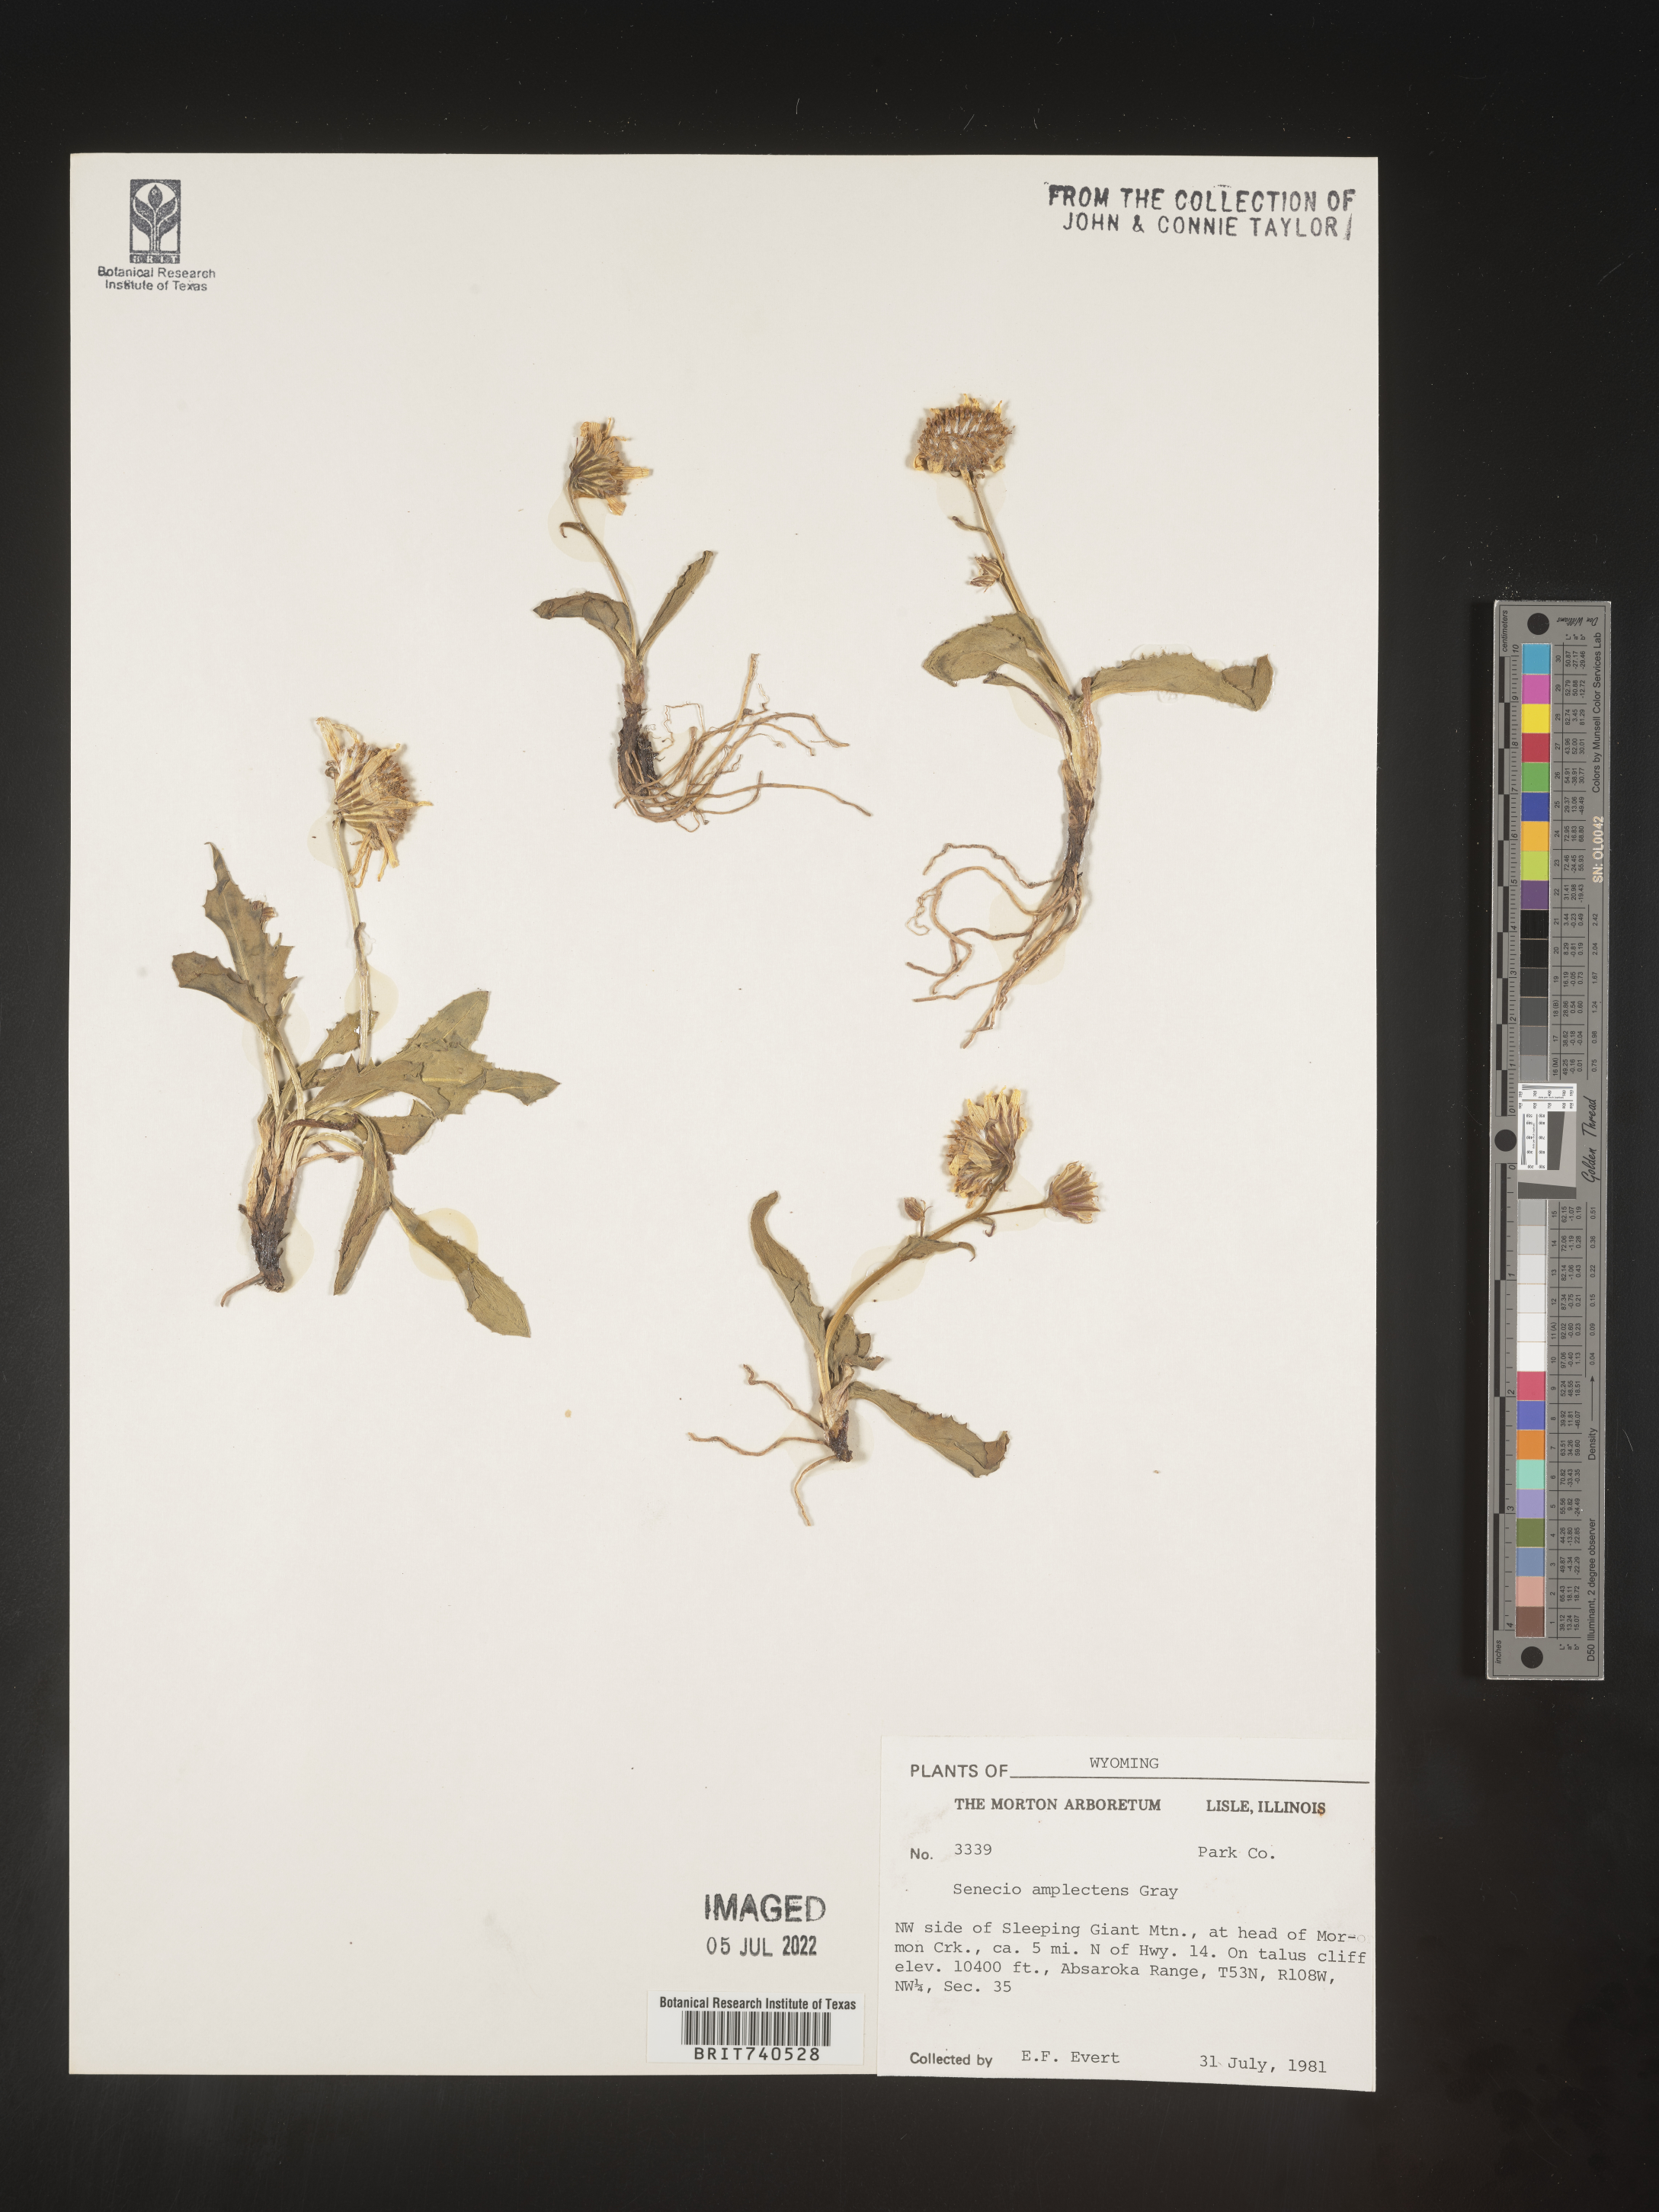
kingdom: Plantae
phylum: Tracheophyta
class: Magnoliopsida
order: Asterales
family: Asteraceae
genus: Senecio
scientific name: Senecio amplectens
